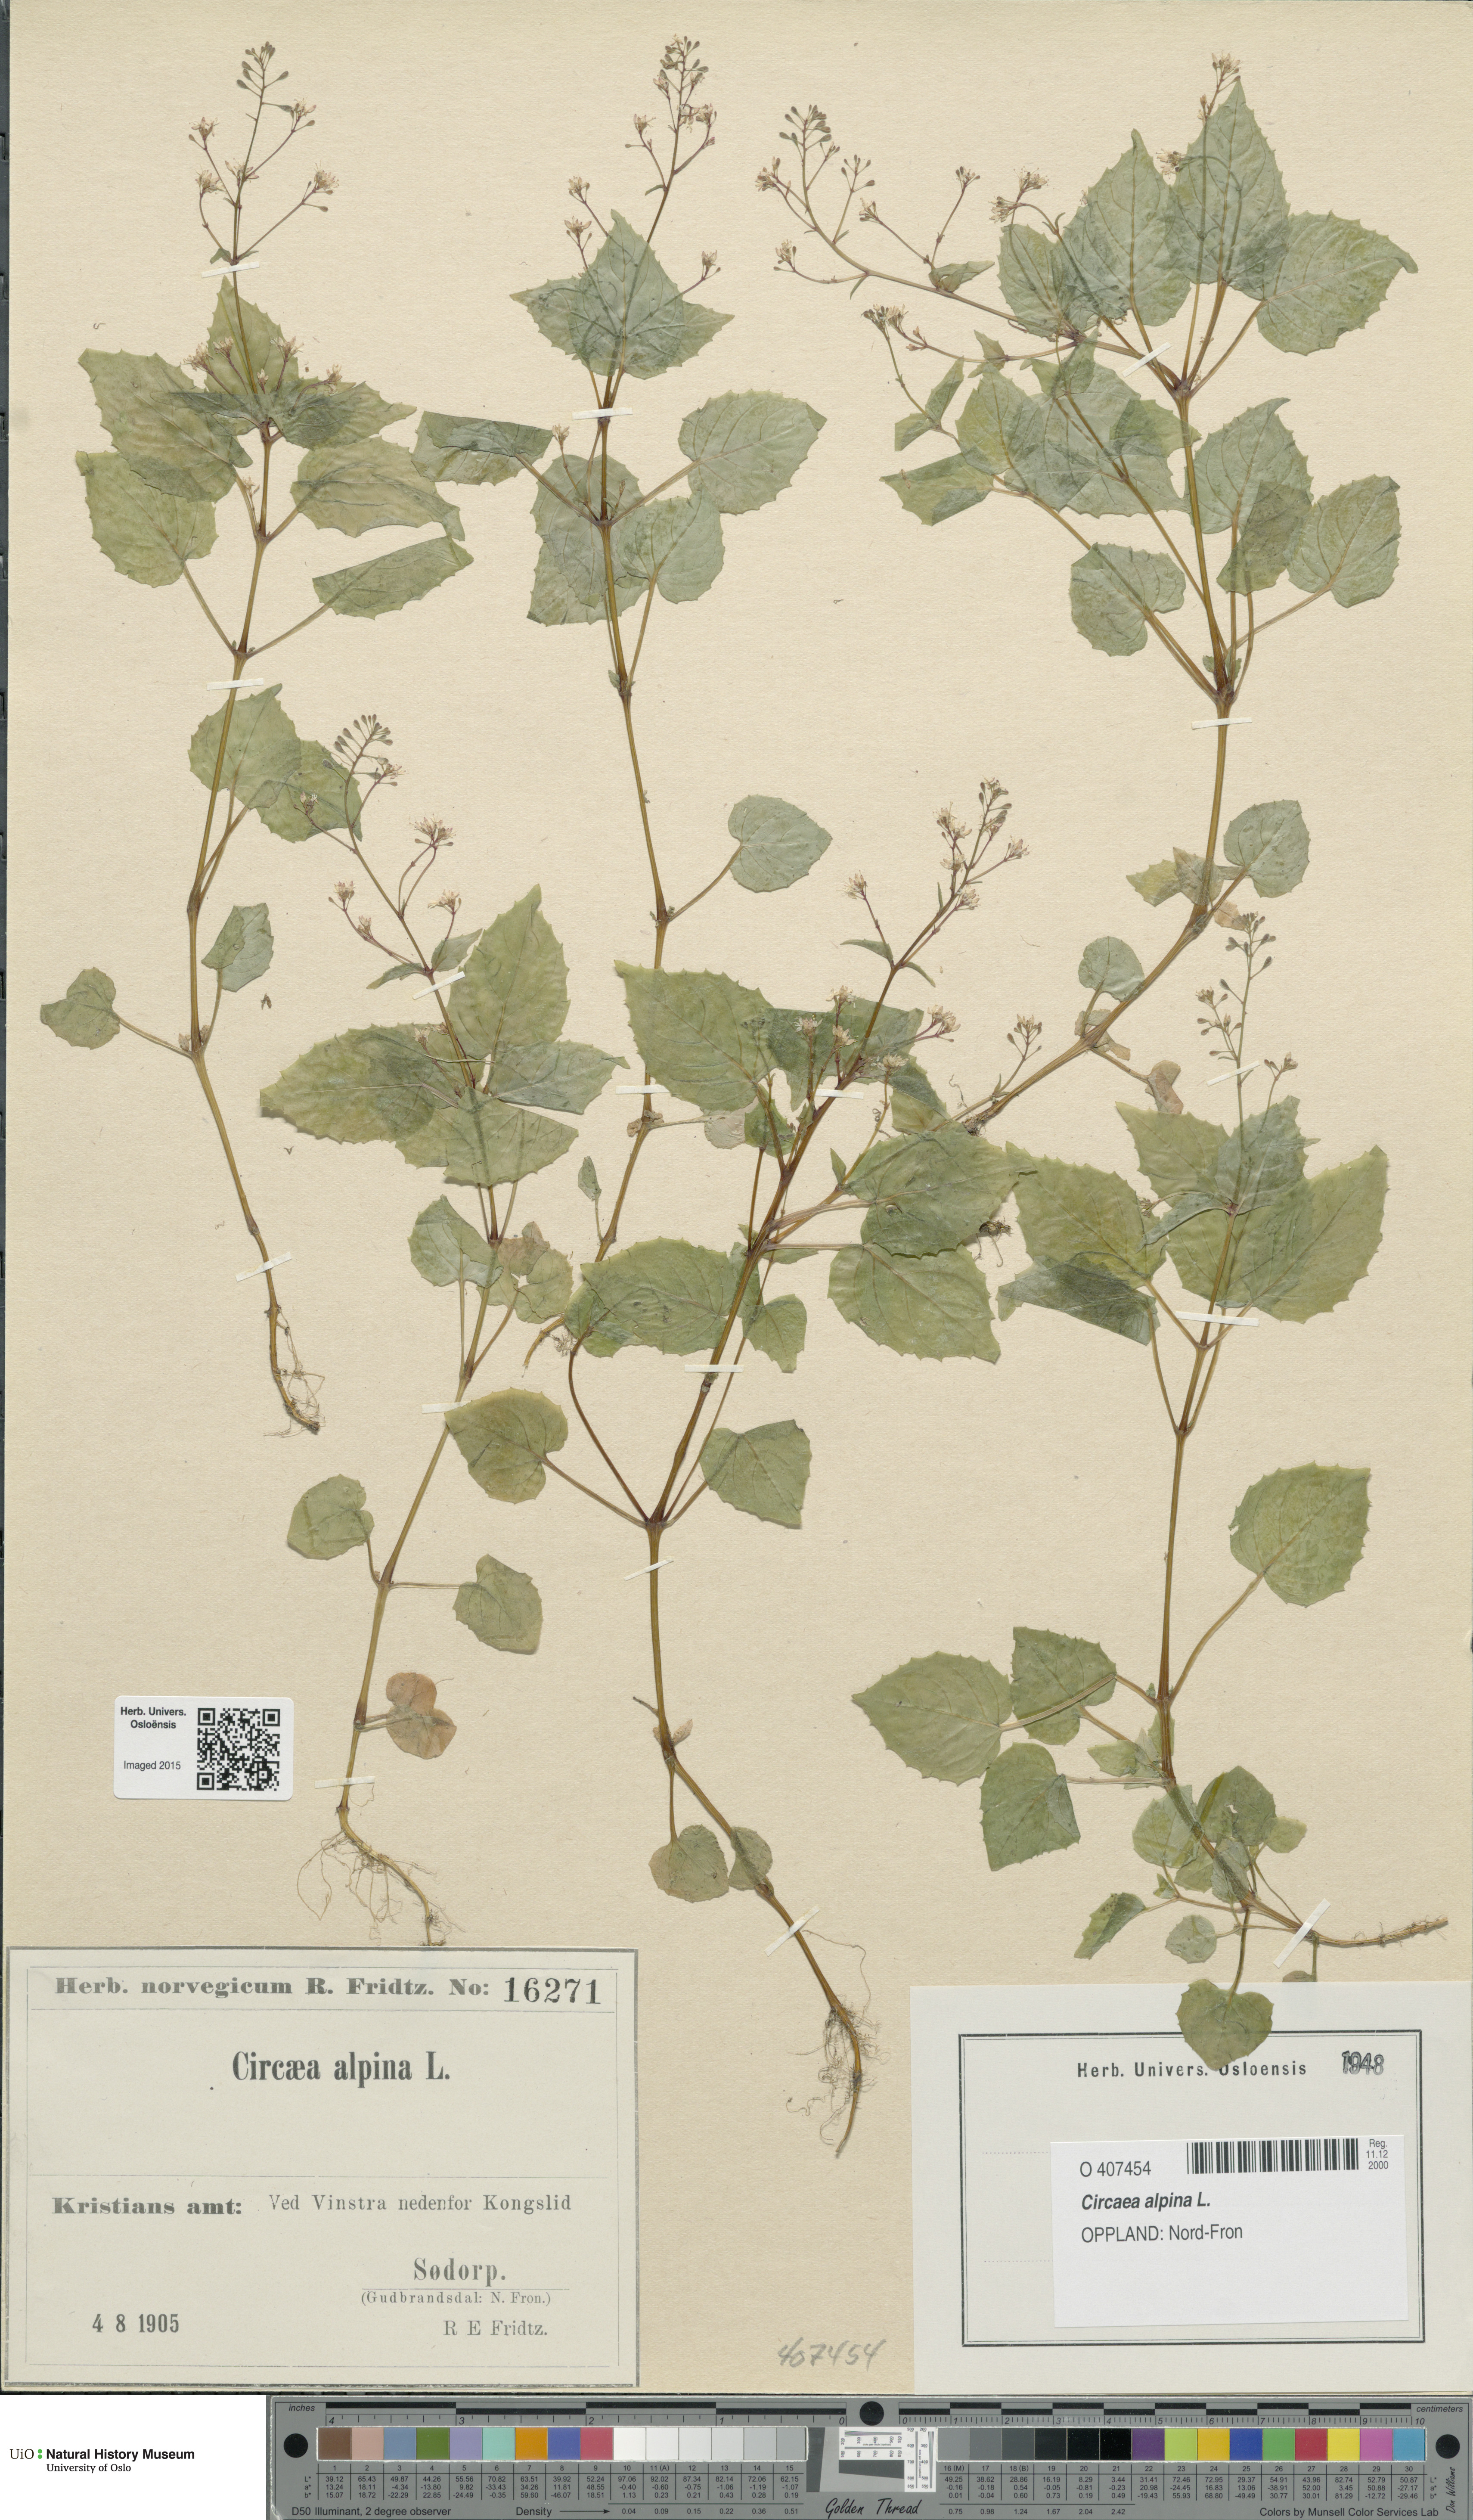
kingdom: Plantae
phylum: Tracheophyta
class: Magnoliopsida
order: Myrtales
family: Onagraceae
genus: Circaea
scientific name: Circaea alpina
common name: Alpine enchanter's-nightshade
